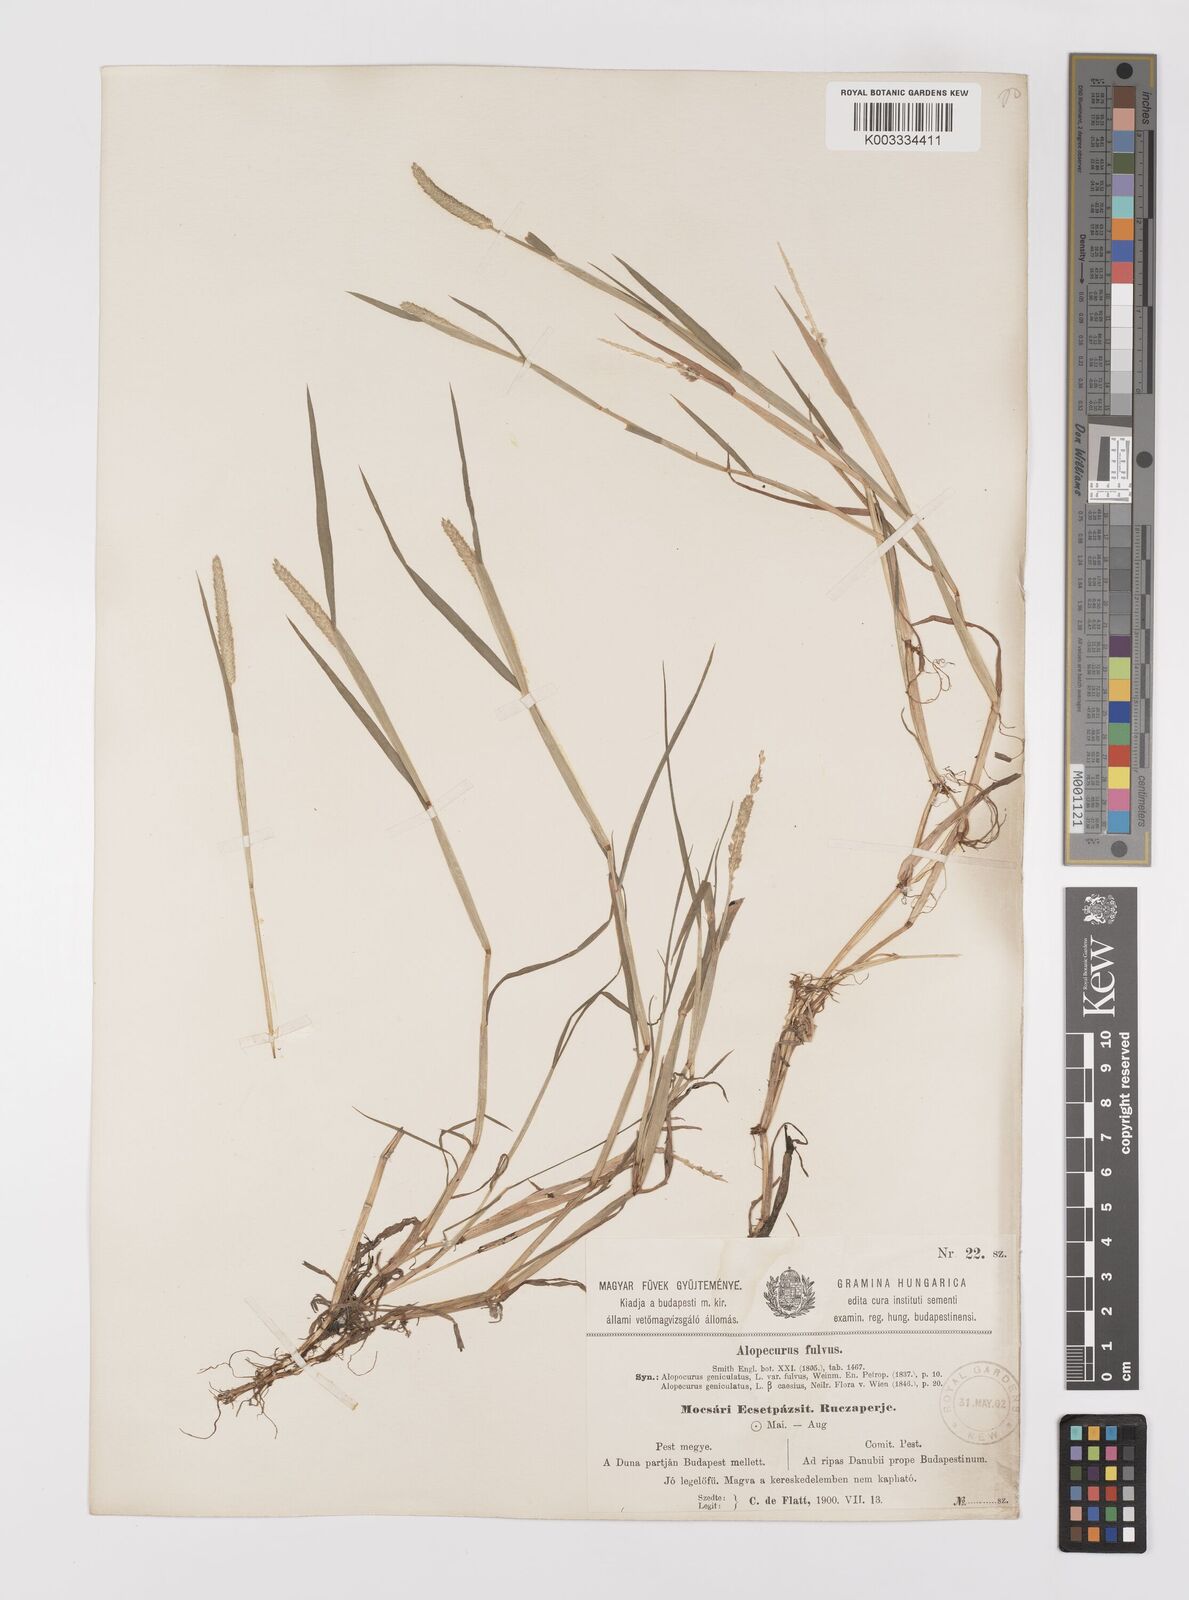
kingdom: Plantae
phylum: Tracheophyta
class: Liliopsida
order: Poales
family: Poaceae
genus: Alopecurus
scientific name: Alopecurus aequalis
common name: Orange foxtail
